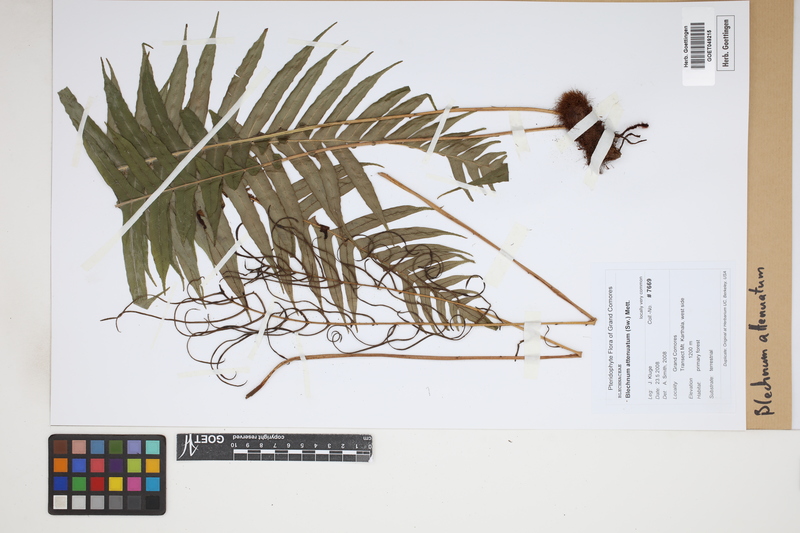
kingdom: Plantae
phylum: Tracheophyta
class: Polypodiopsida
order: Polypodiales
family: Blechnaceae
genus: Lomaridium
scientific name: Lomaridium attenuatum
